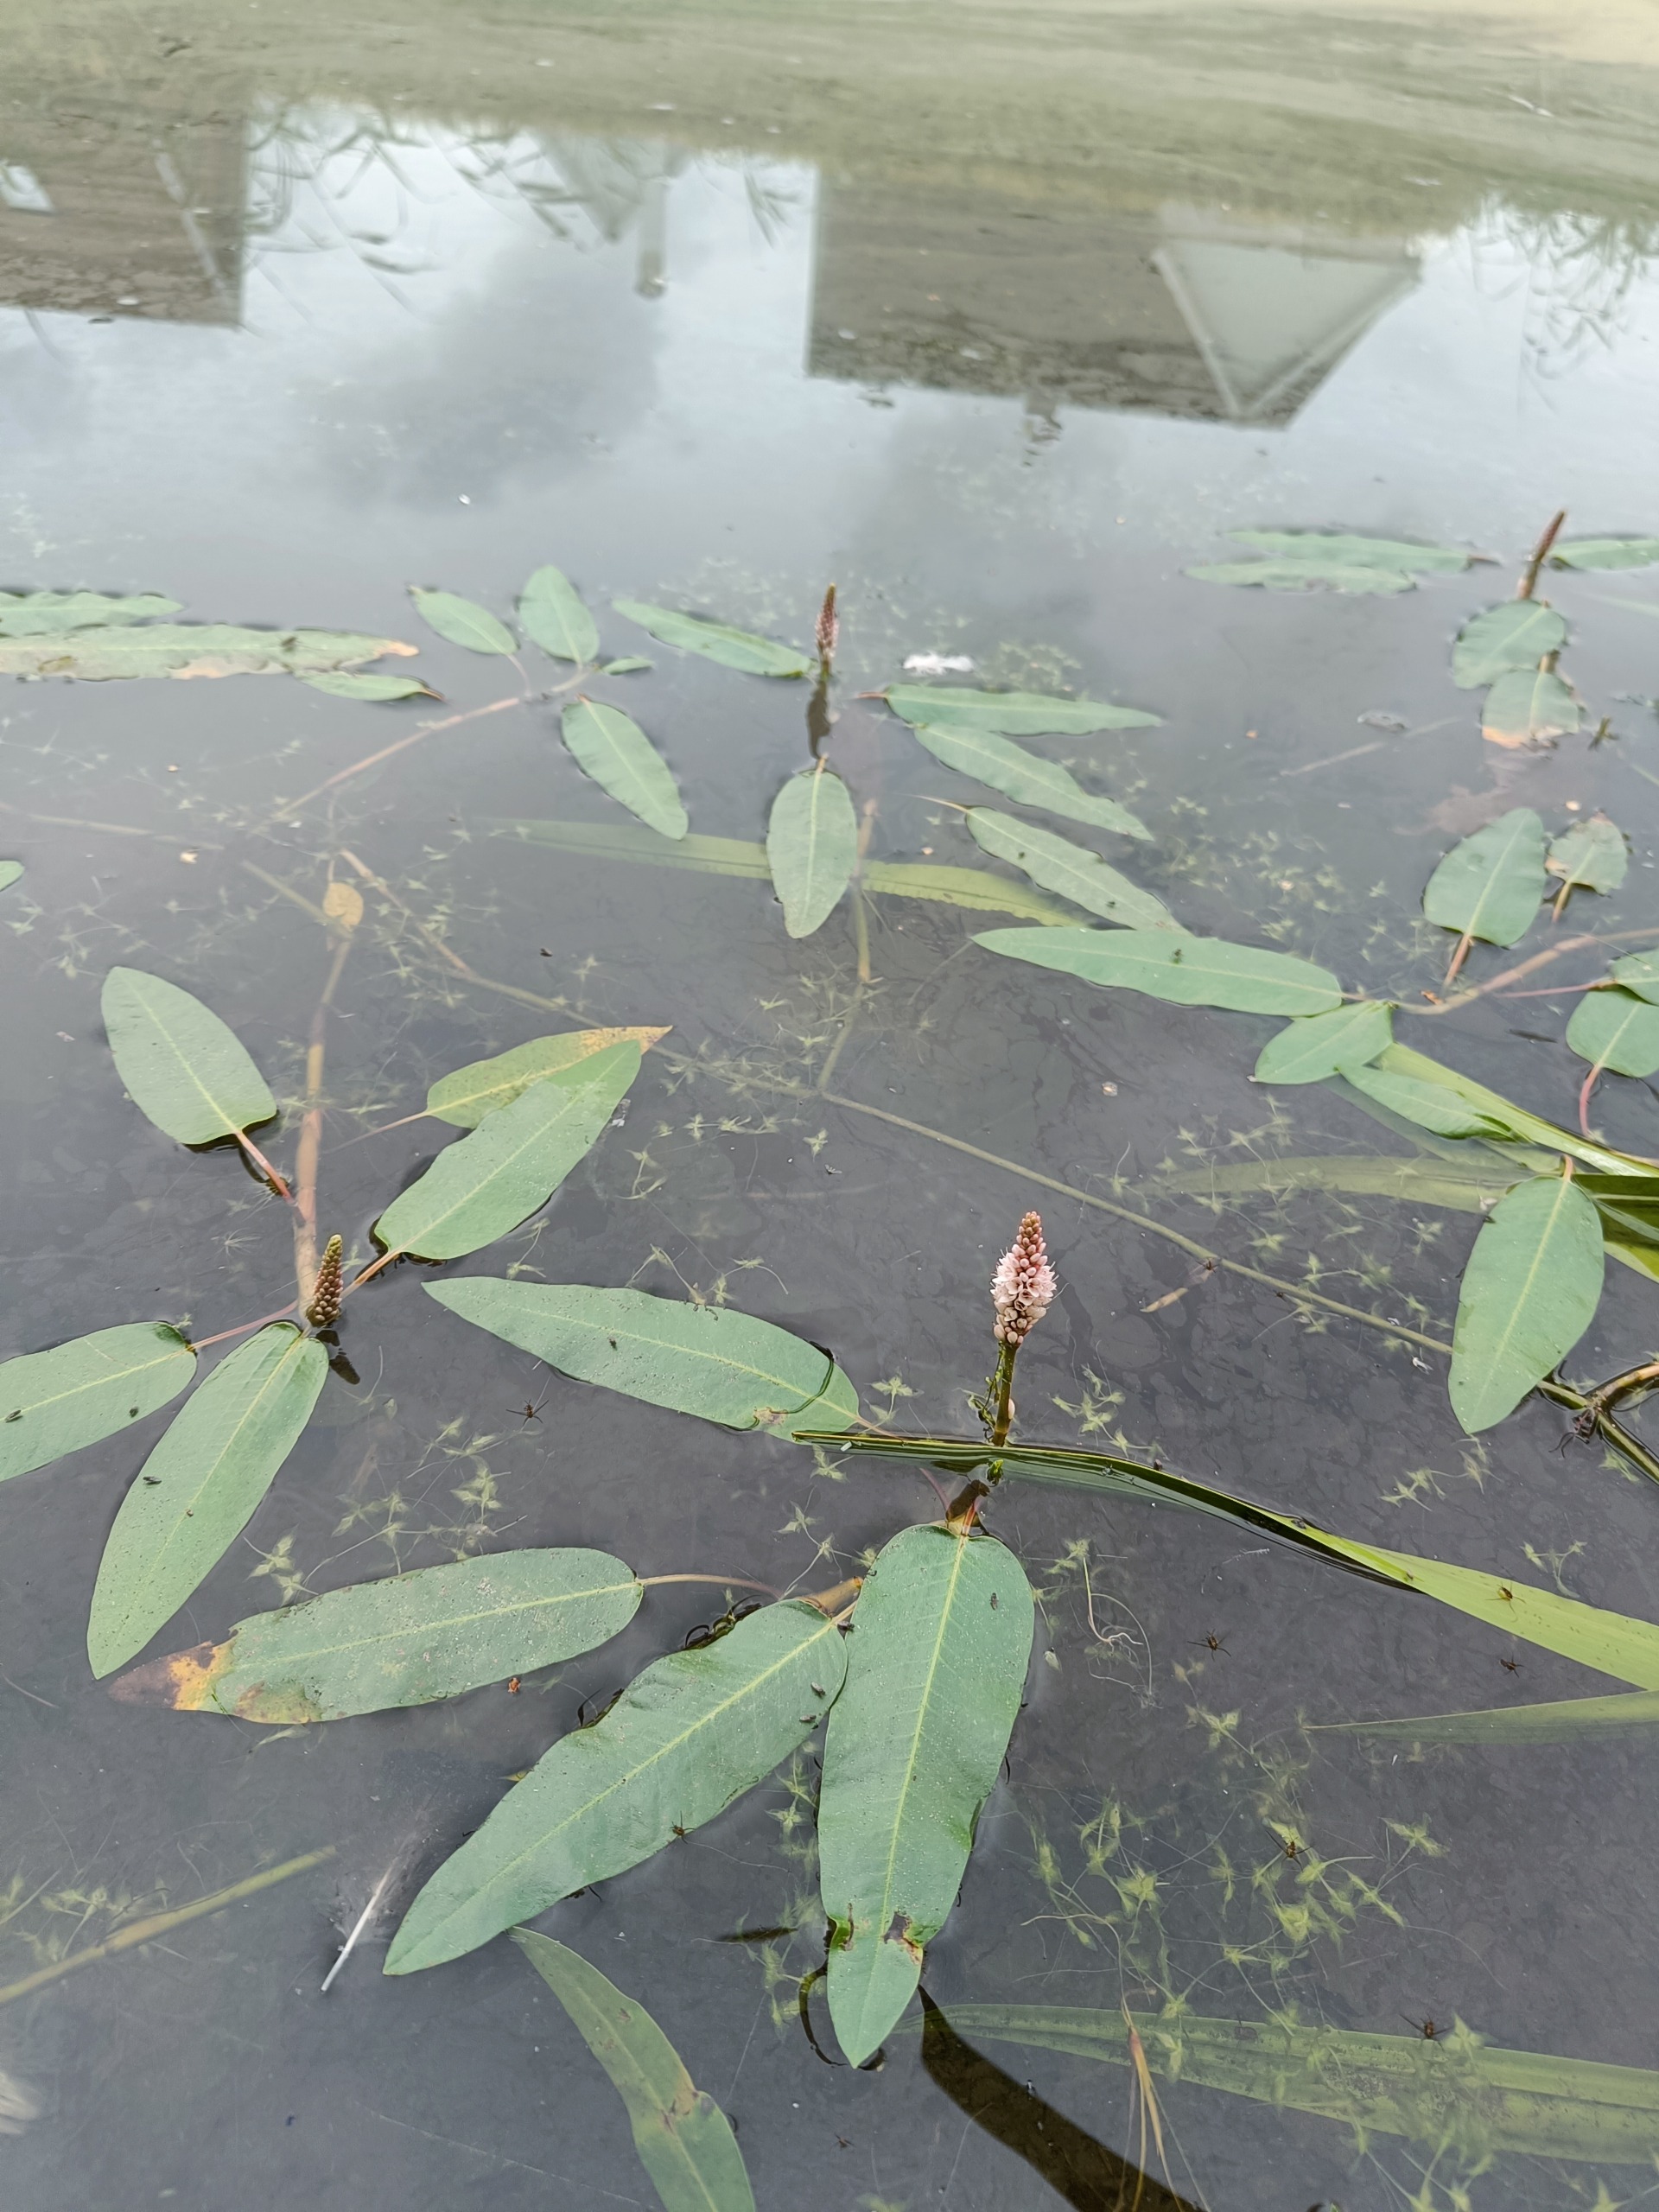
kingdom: Plantae
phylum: Tracheophyta
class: Magnoliopsida
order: Caryophyllales
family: Polygonaceae
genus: Persicaria
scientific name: Persicaria amphibia
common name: Vand-pileurt
